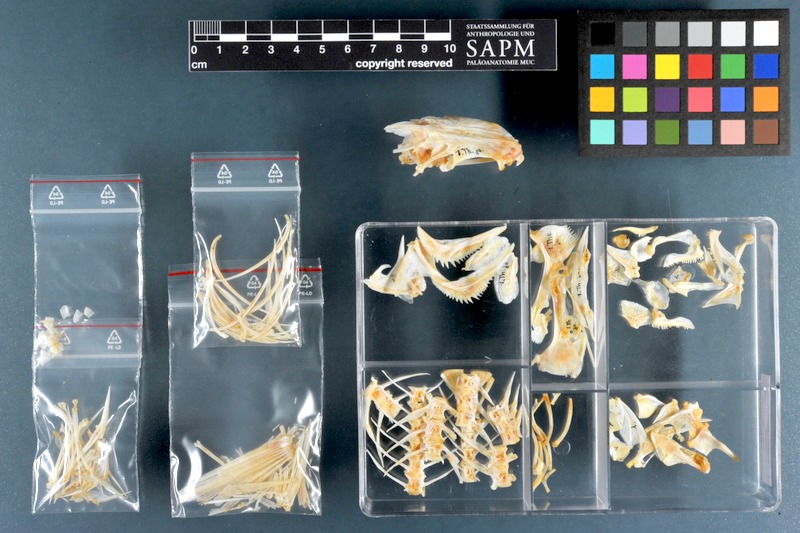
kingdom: Animalia
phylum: Chordata
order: Perciformes
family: Terapontidae
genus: Terapon
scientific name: Terapon jarbua
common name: Jarbua terapon
